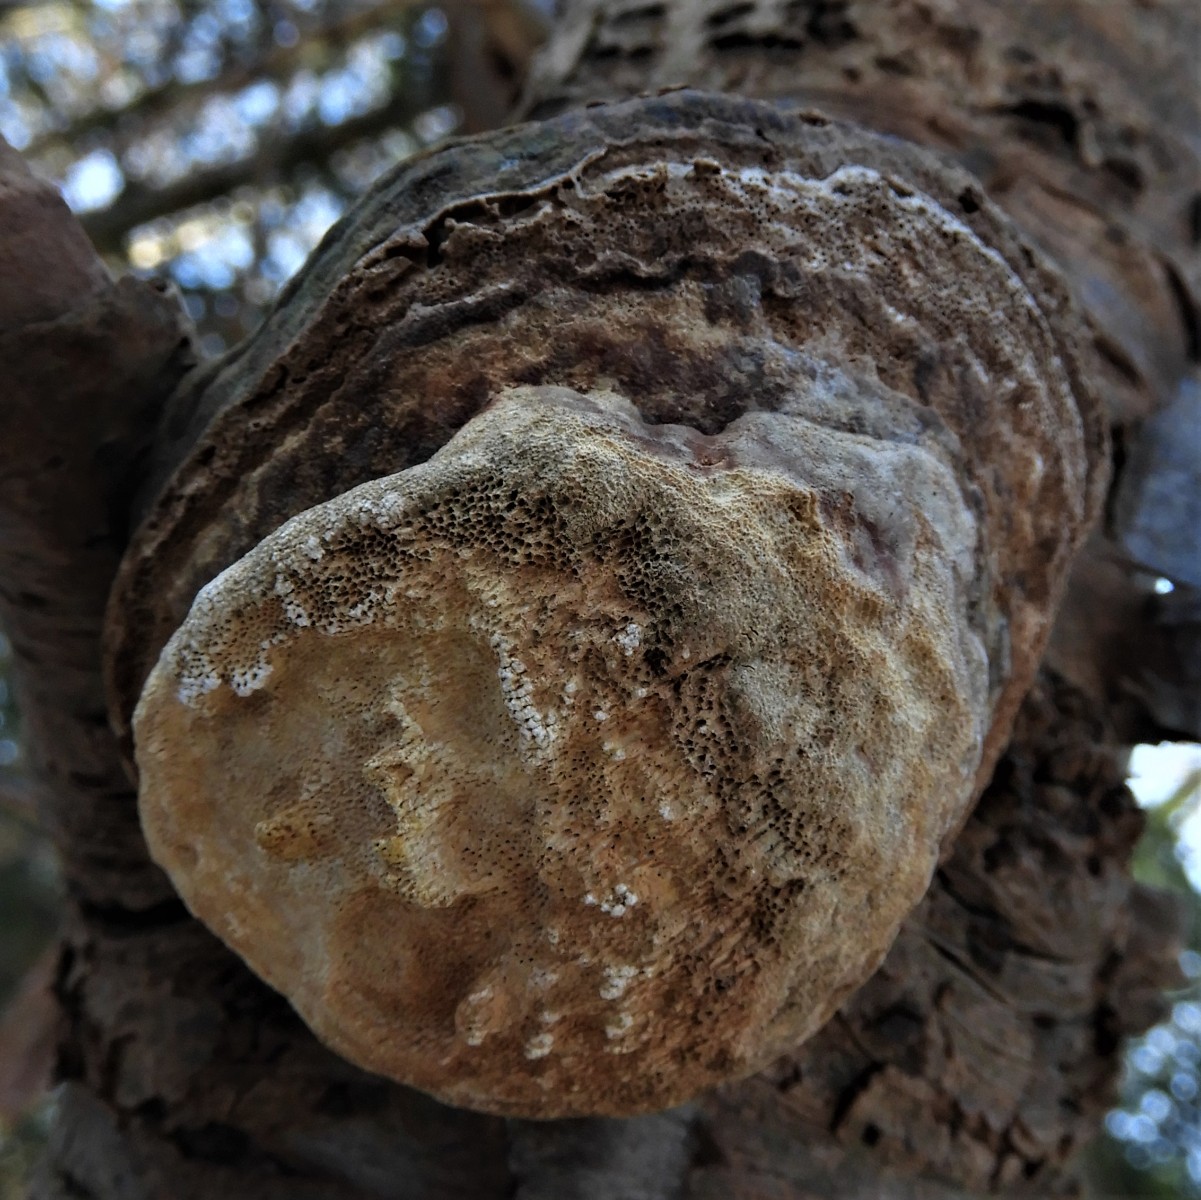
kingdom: Fungi
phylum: Basidiomycota
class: Agaricomycetes
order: Polyporales
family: Polyporaceae
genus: Fomes
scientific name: Fomes fomentarius
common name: tøndersvamp
